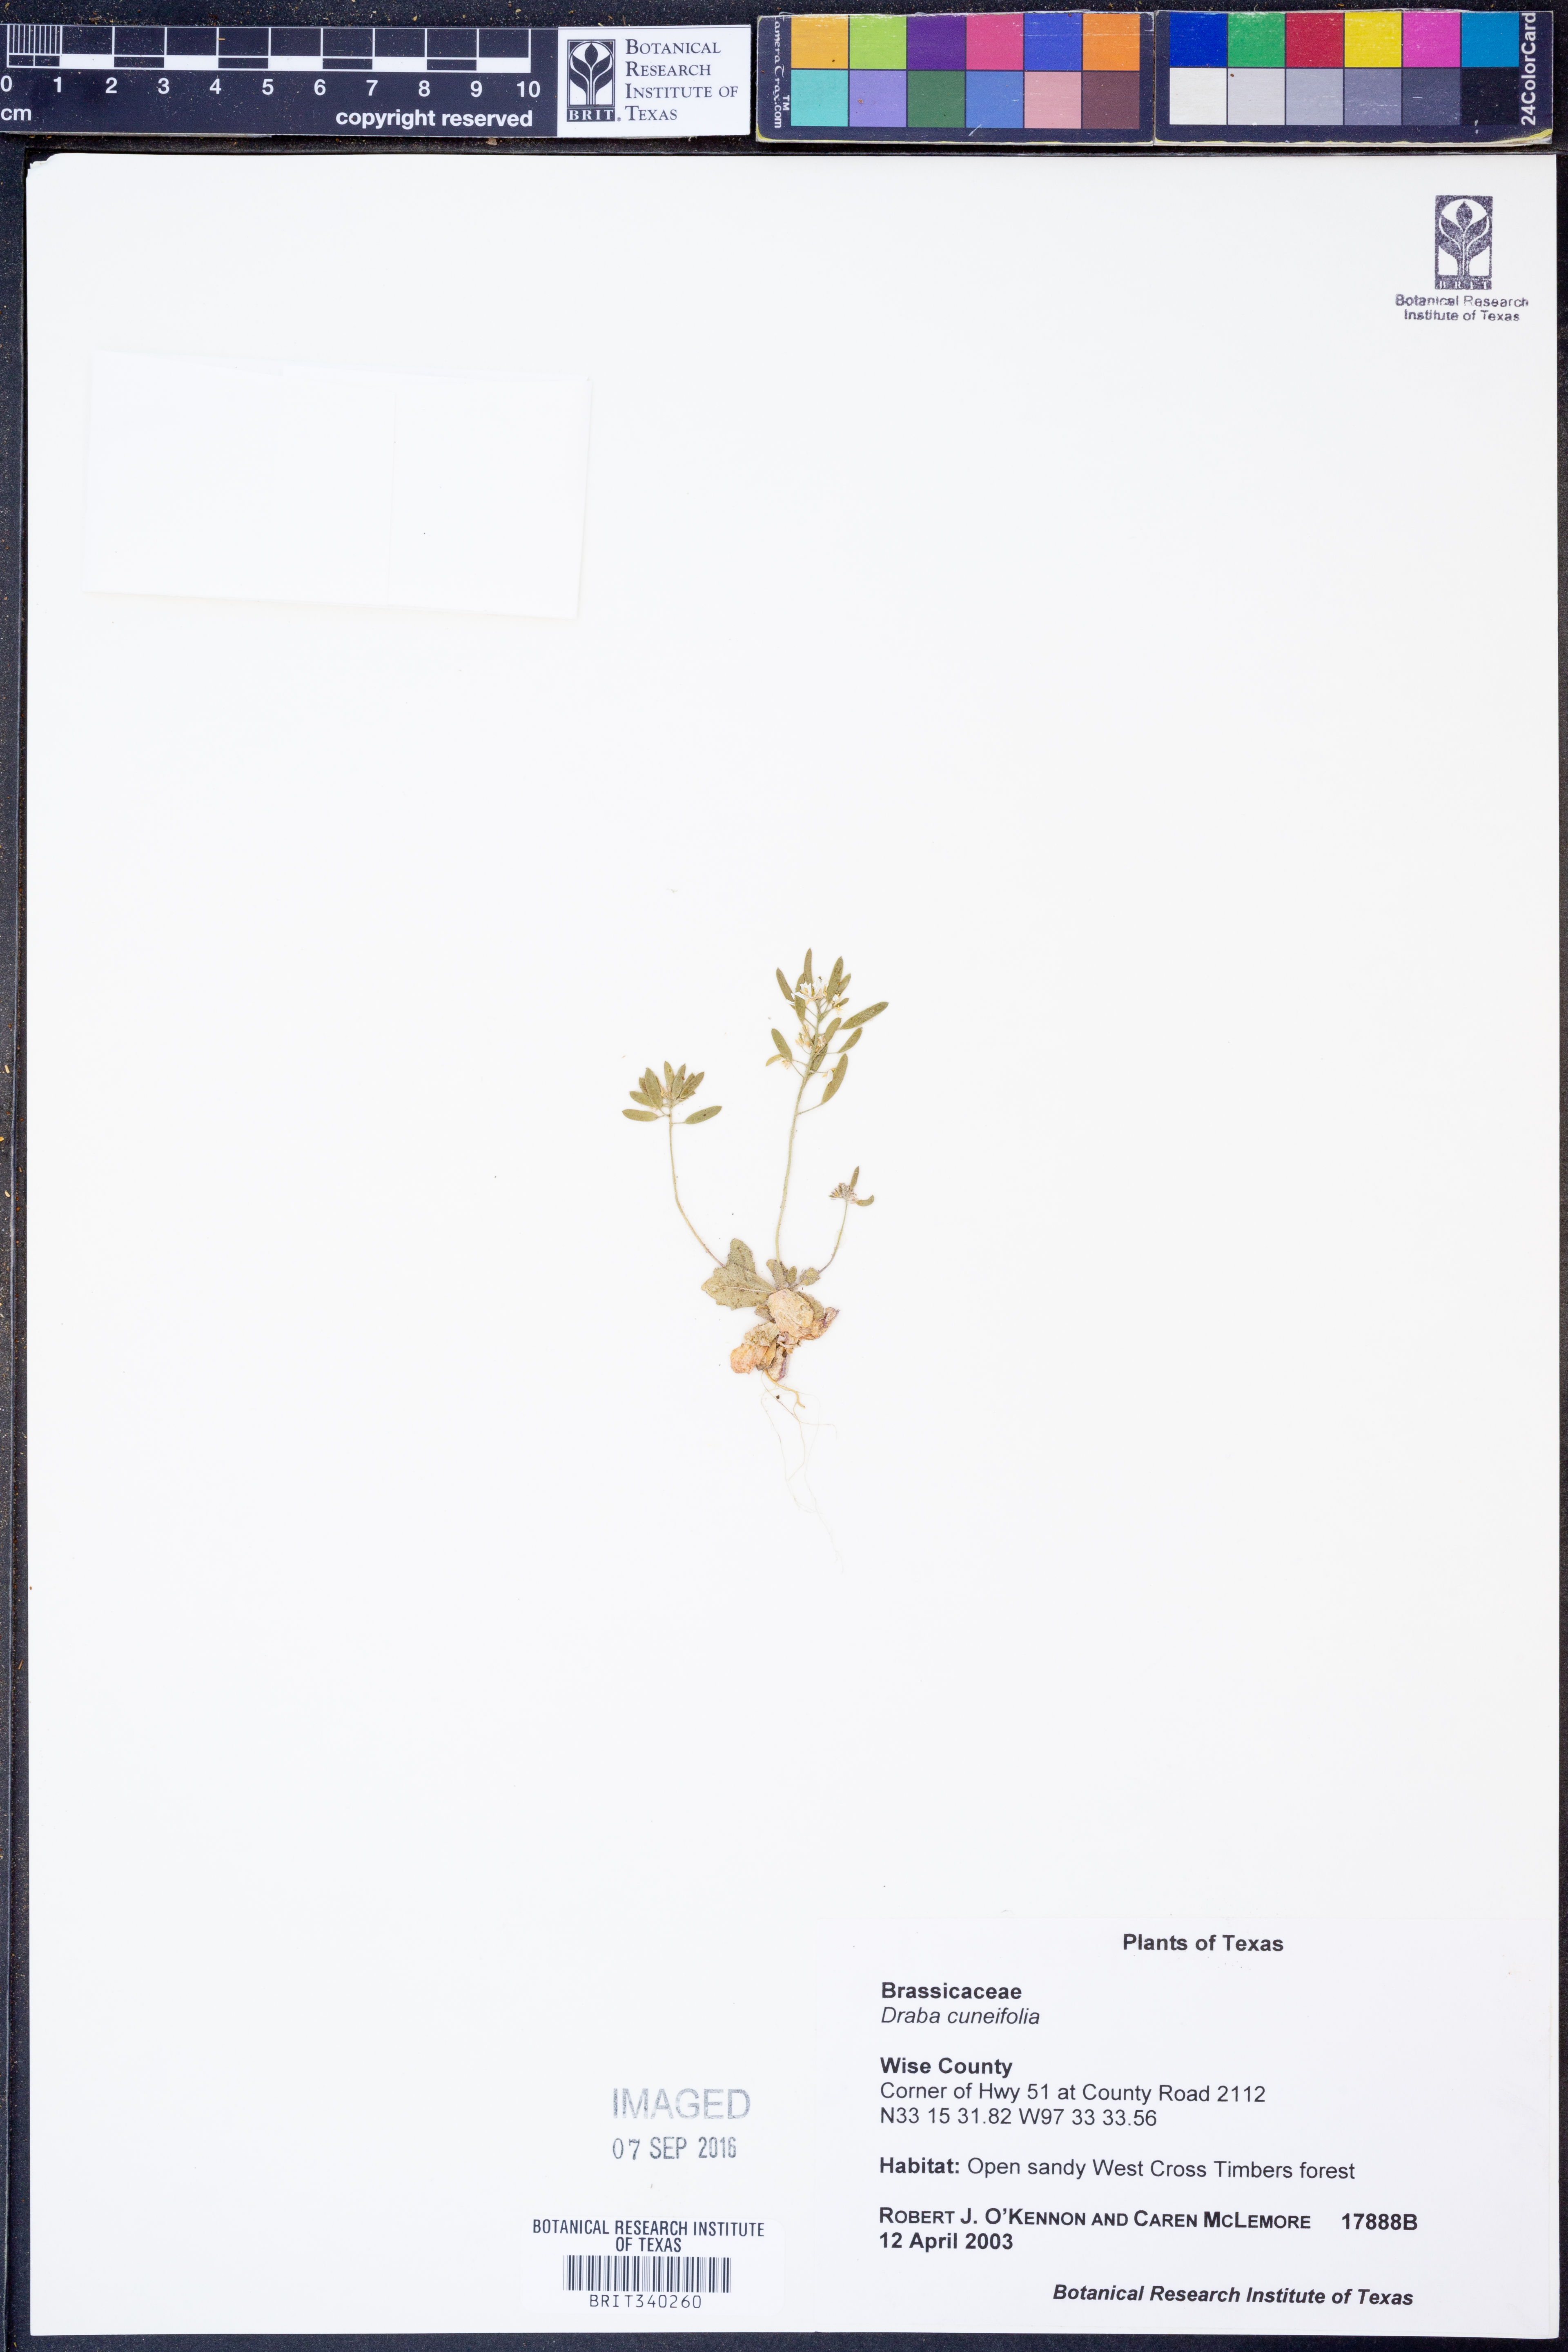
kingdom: Plantae
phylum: Tracheophyta
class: Magnoliopsida
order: Brassicales
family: Brassicaceae
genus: Tomostima
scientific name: Tomostima cuneifolia
